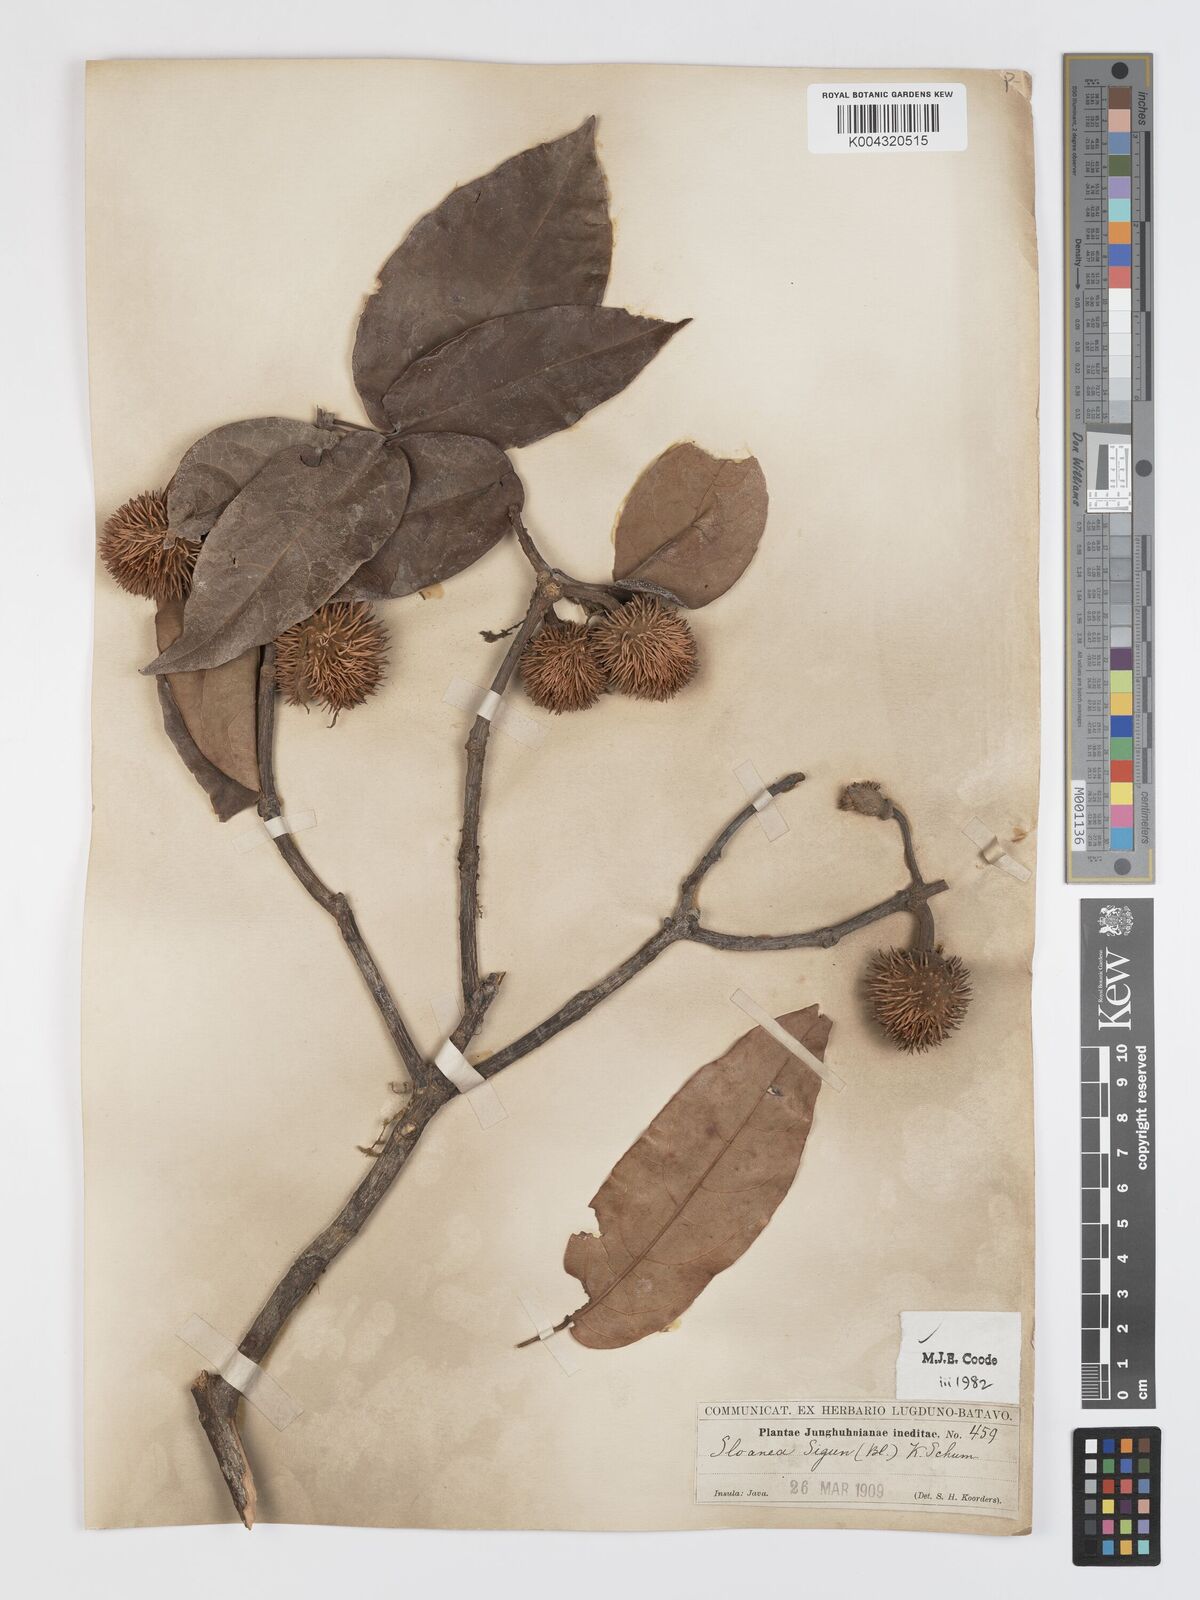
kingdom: Plantae
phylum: Tracheophyta
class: Magnoliopsida
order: Oxalidales
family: Elaeocarpaceae
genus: Sloanea
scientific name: Sloanea sigun
